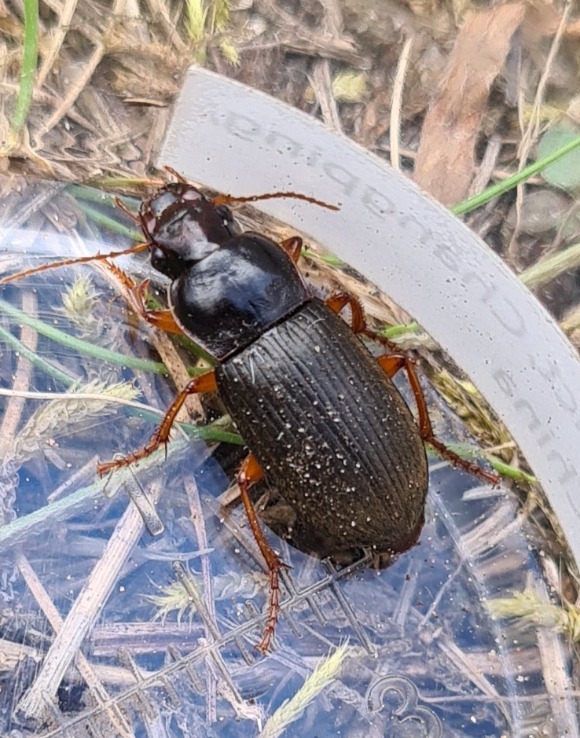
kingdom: Animalia
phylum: Arthropoda
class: Insecta
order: Coleoptera
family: Carabidae
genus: Harpalus
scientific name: Harpalus rufipes
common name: Håret markløber
